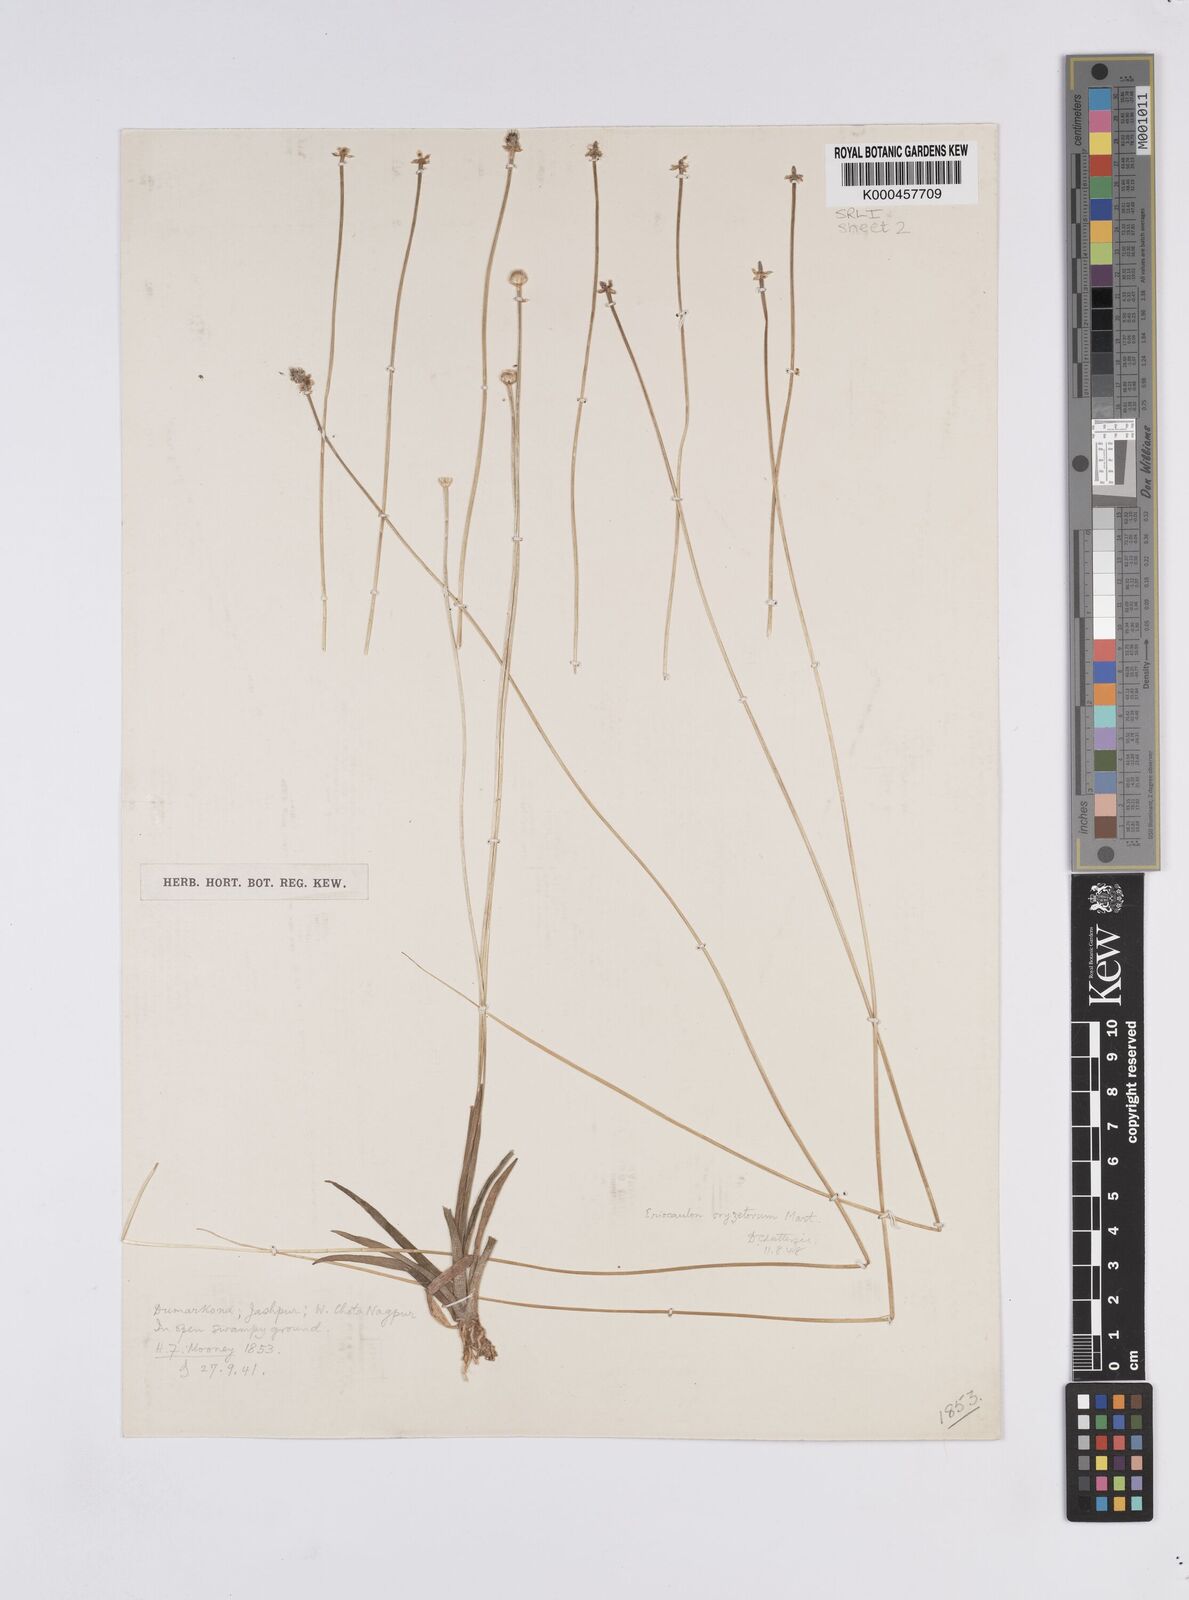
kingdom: Plantae
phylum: Tracheophyta
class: Liliopsida
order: Poales
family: Eriocaulaceae
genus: Eriocaulon
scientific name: Eriocaulon oryzetorum
